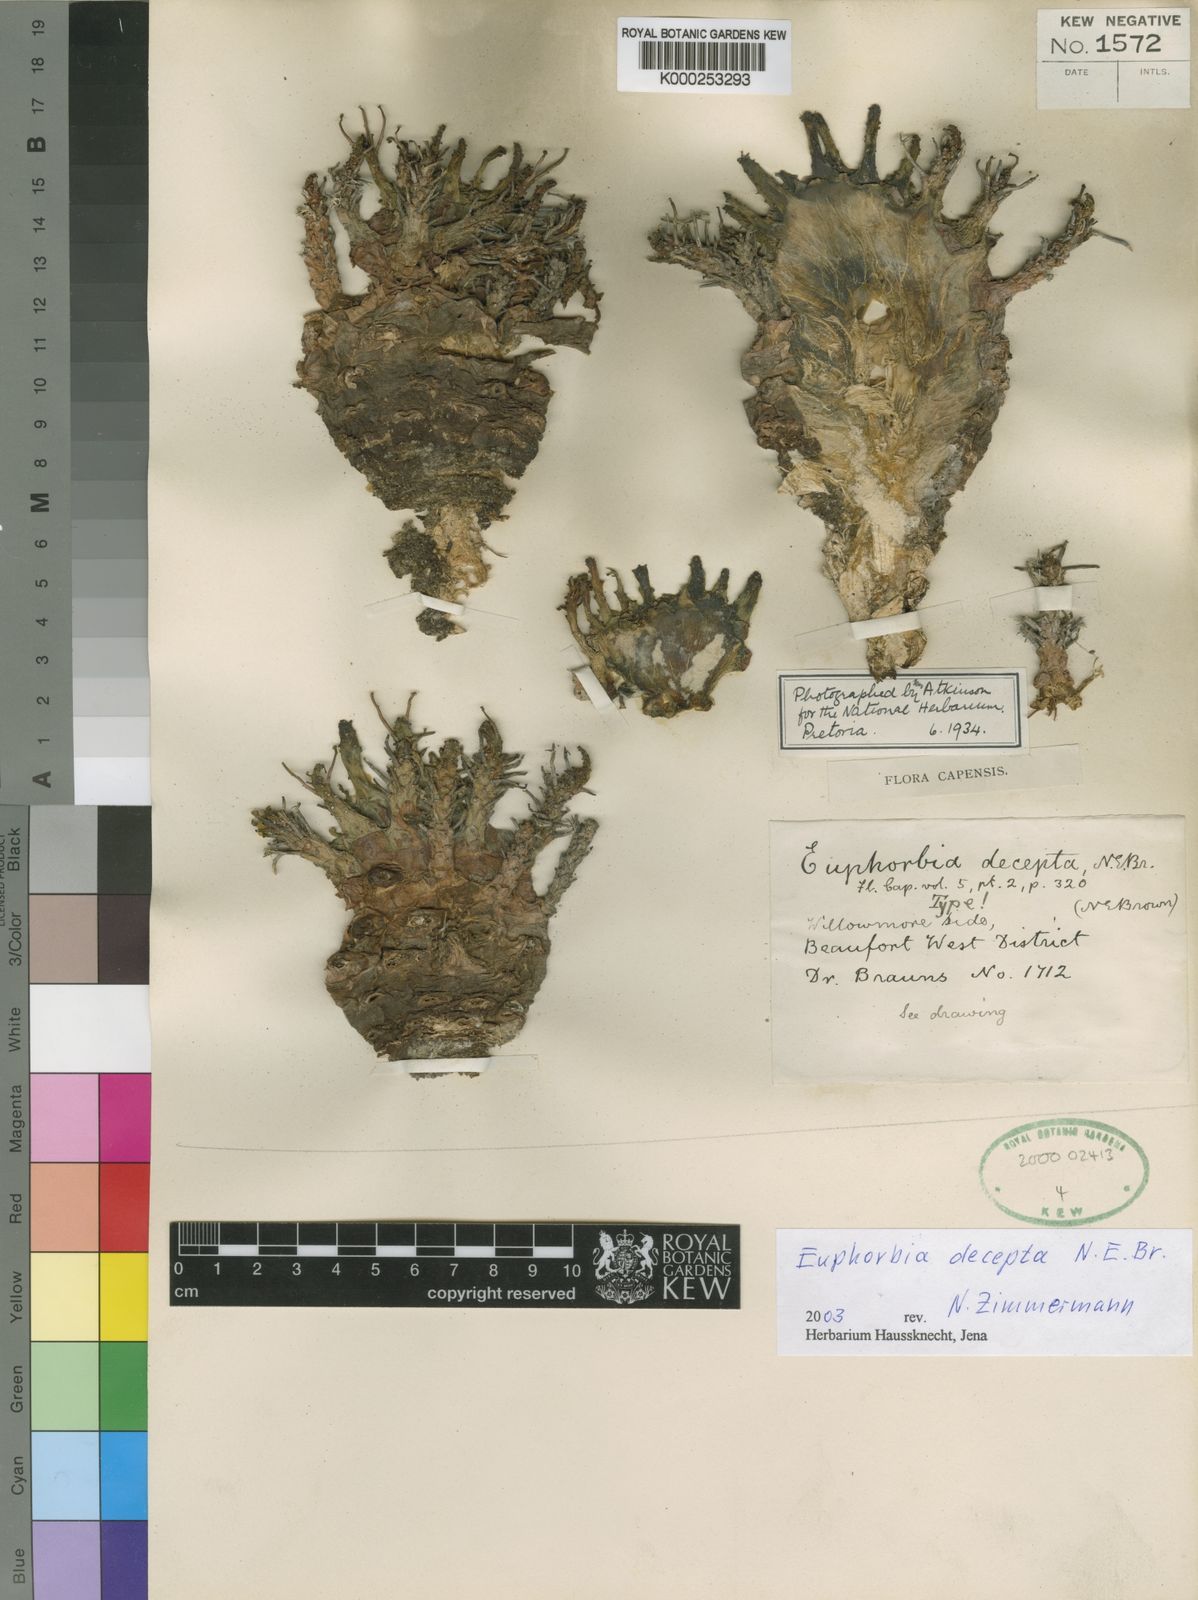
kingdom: Plantae
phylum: Tracheophyta
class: Magnoliopsida
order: Malpighiales
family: Euphorbiaceae
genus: Euphorbia
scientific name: Euphorbia decepta
